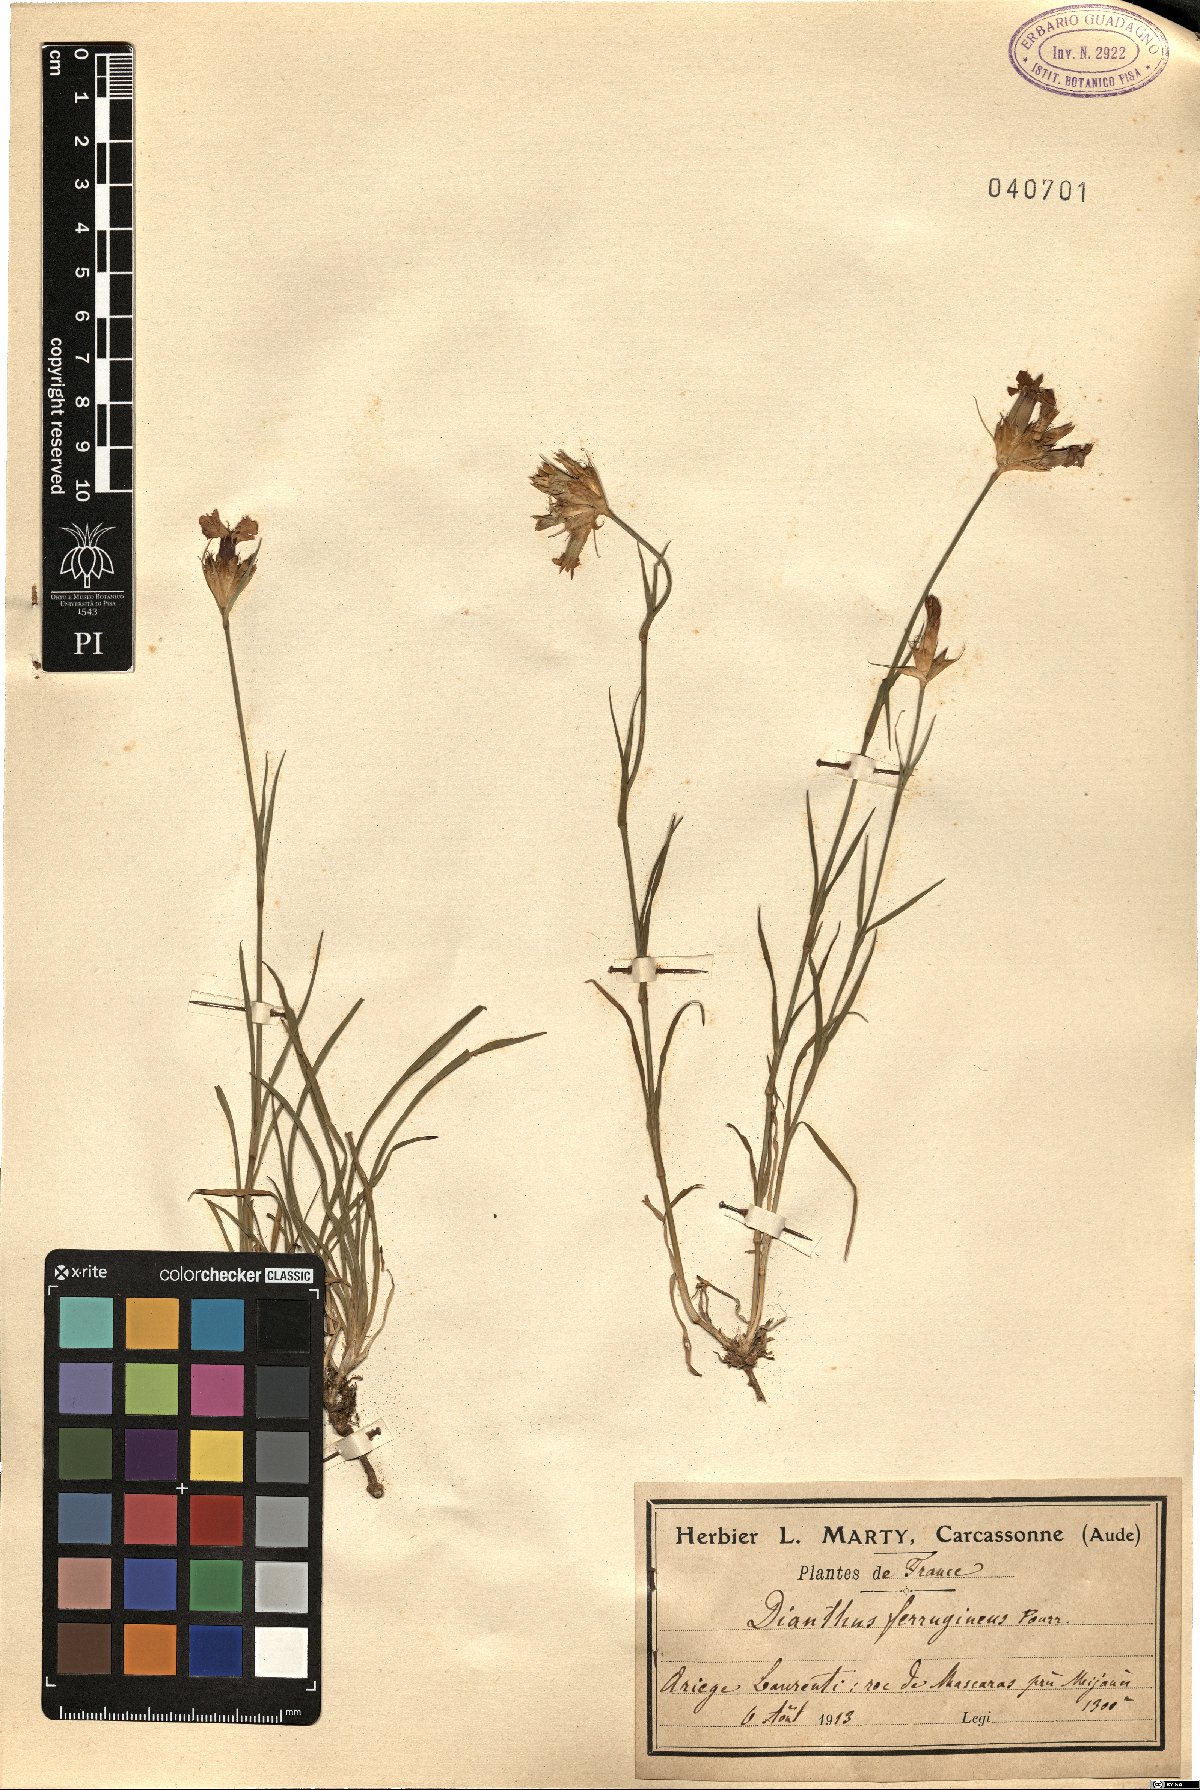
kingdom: Plantae
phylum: Tracheophyta
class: Magnoliopsida
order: Caryophyllales
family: Caryophyllaceae
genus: Dianthus
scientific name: Dianthus crassipes
